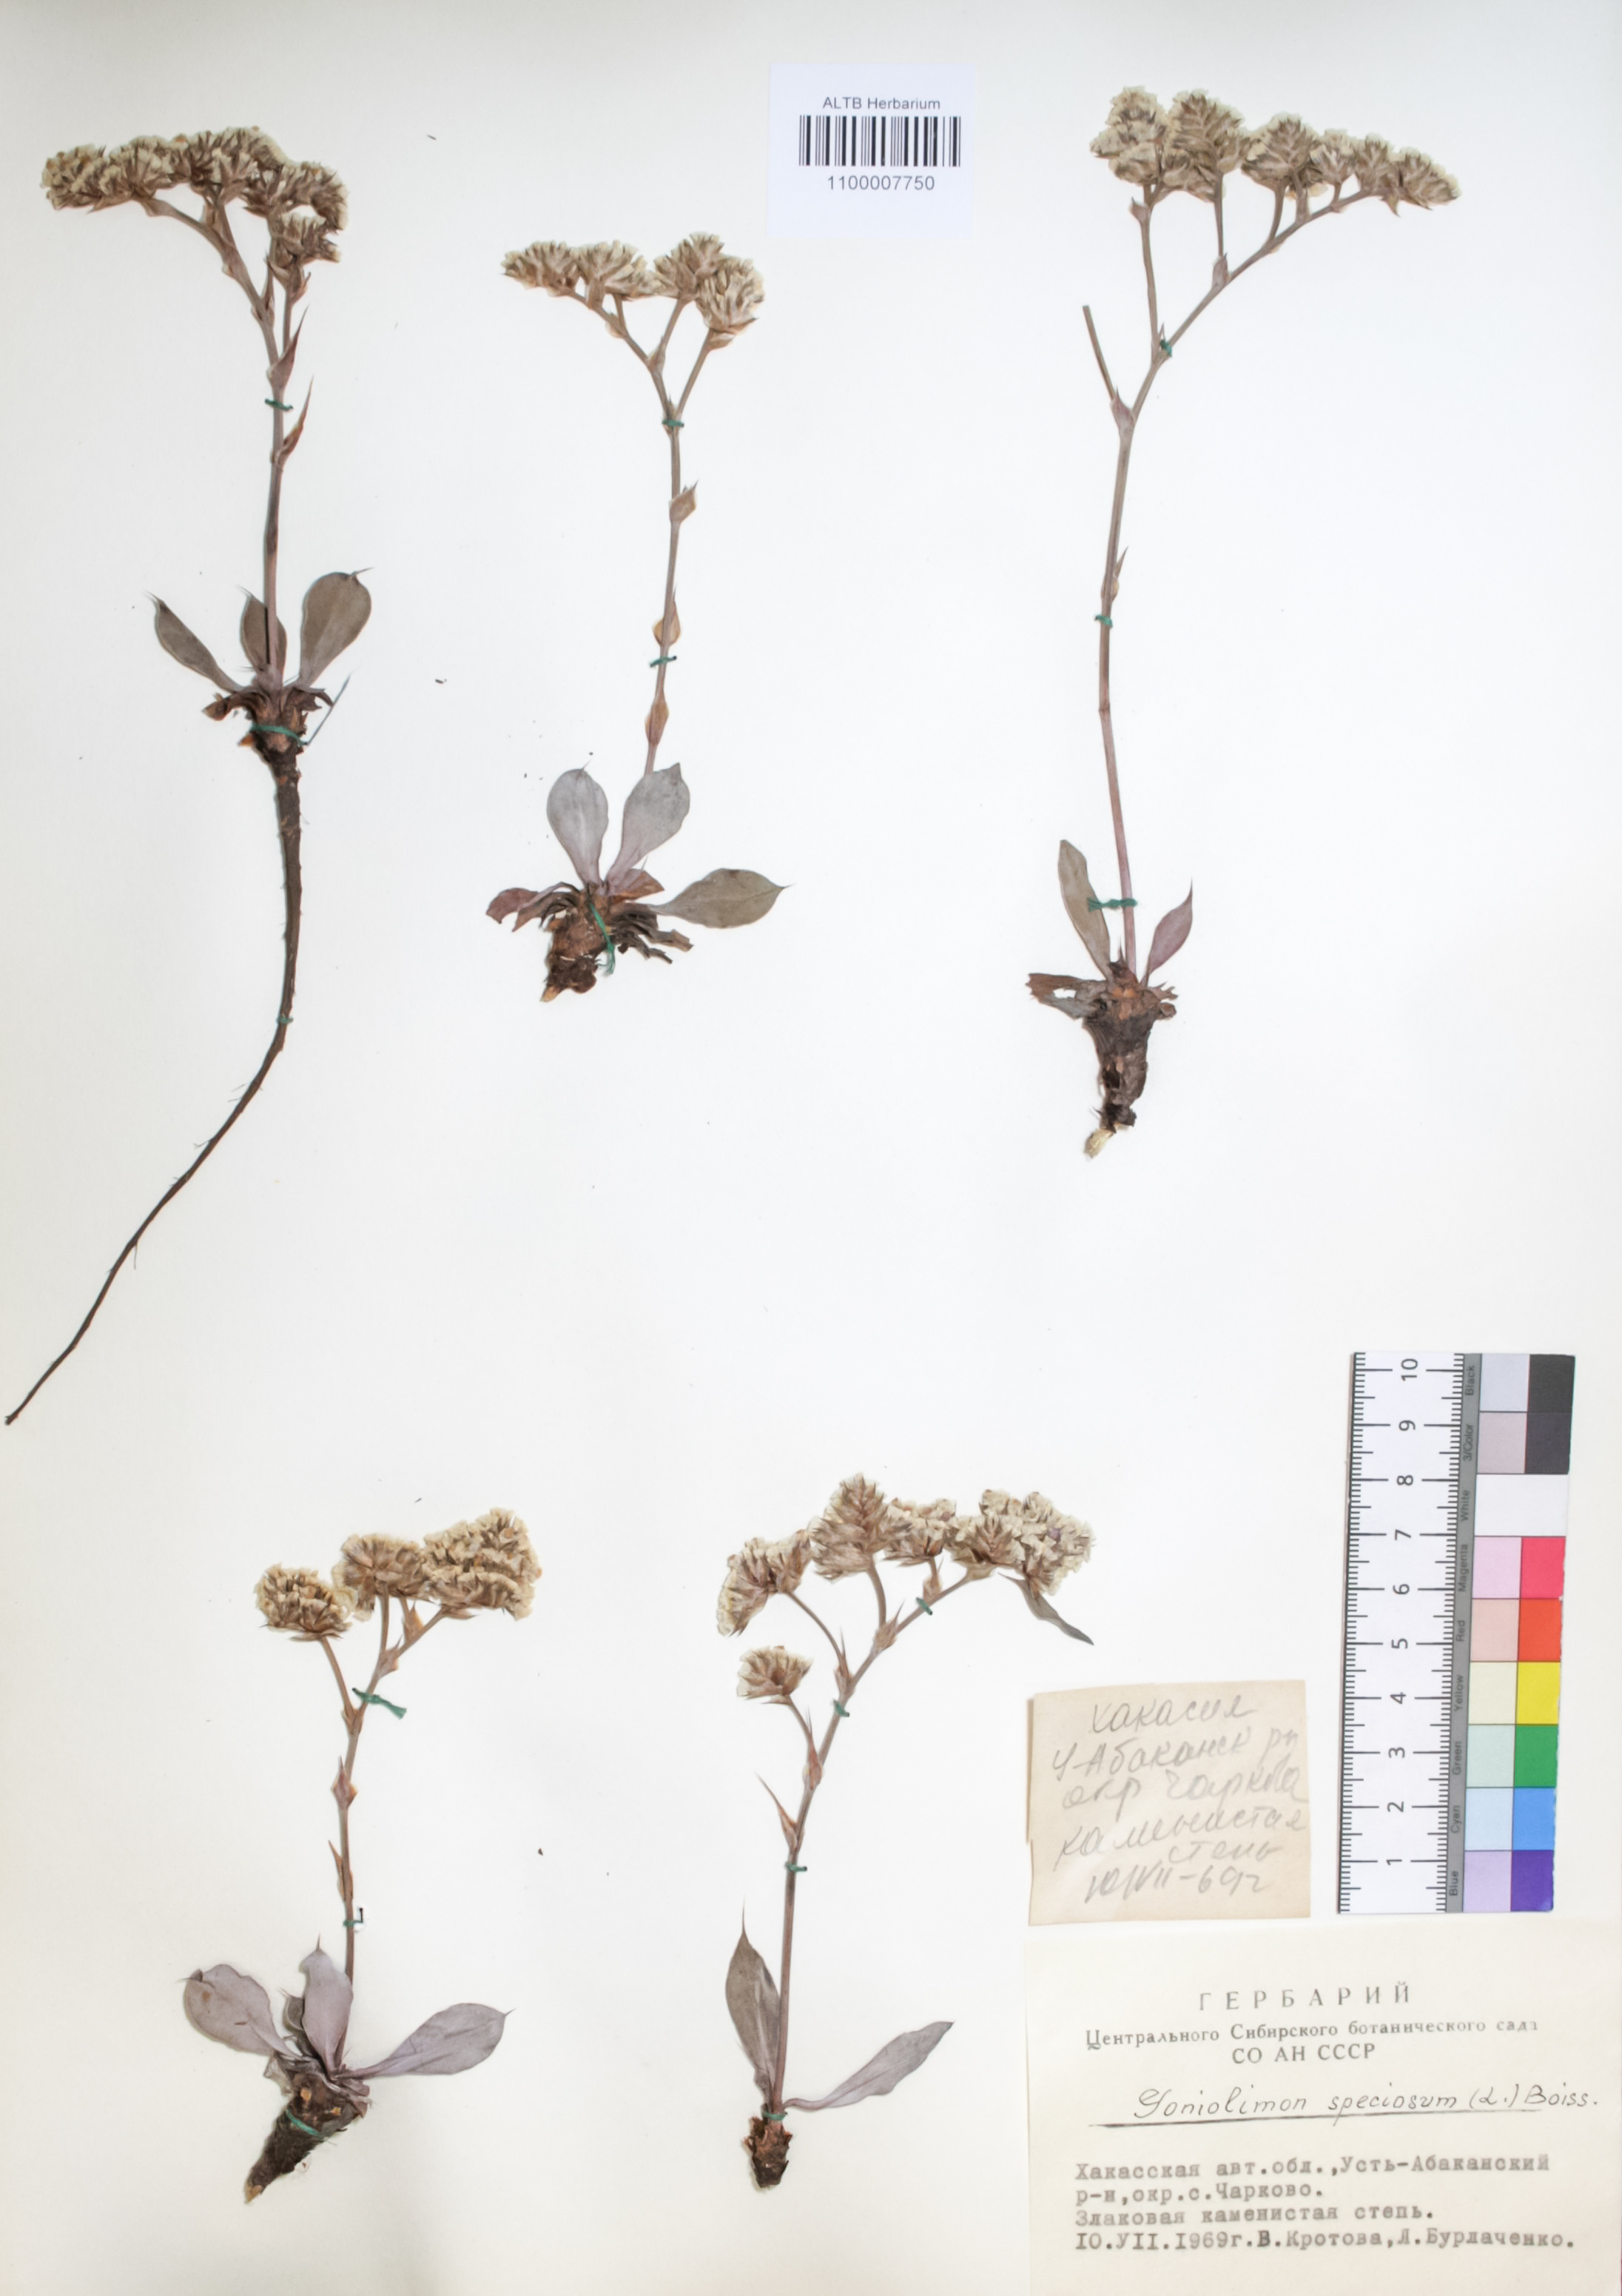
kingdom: Plantae
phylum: Tracheophyta
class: Magnoliopsida
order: Caryophyllales
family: Plumbaginaceae
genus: Goniolimon
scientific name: Goniolimon speciosum
